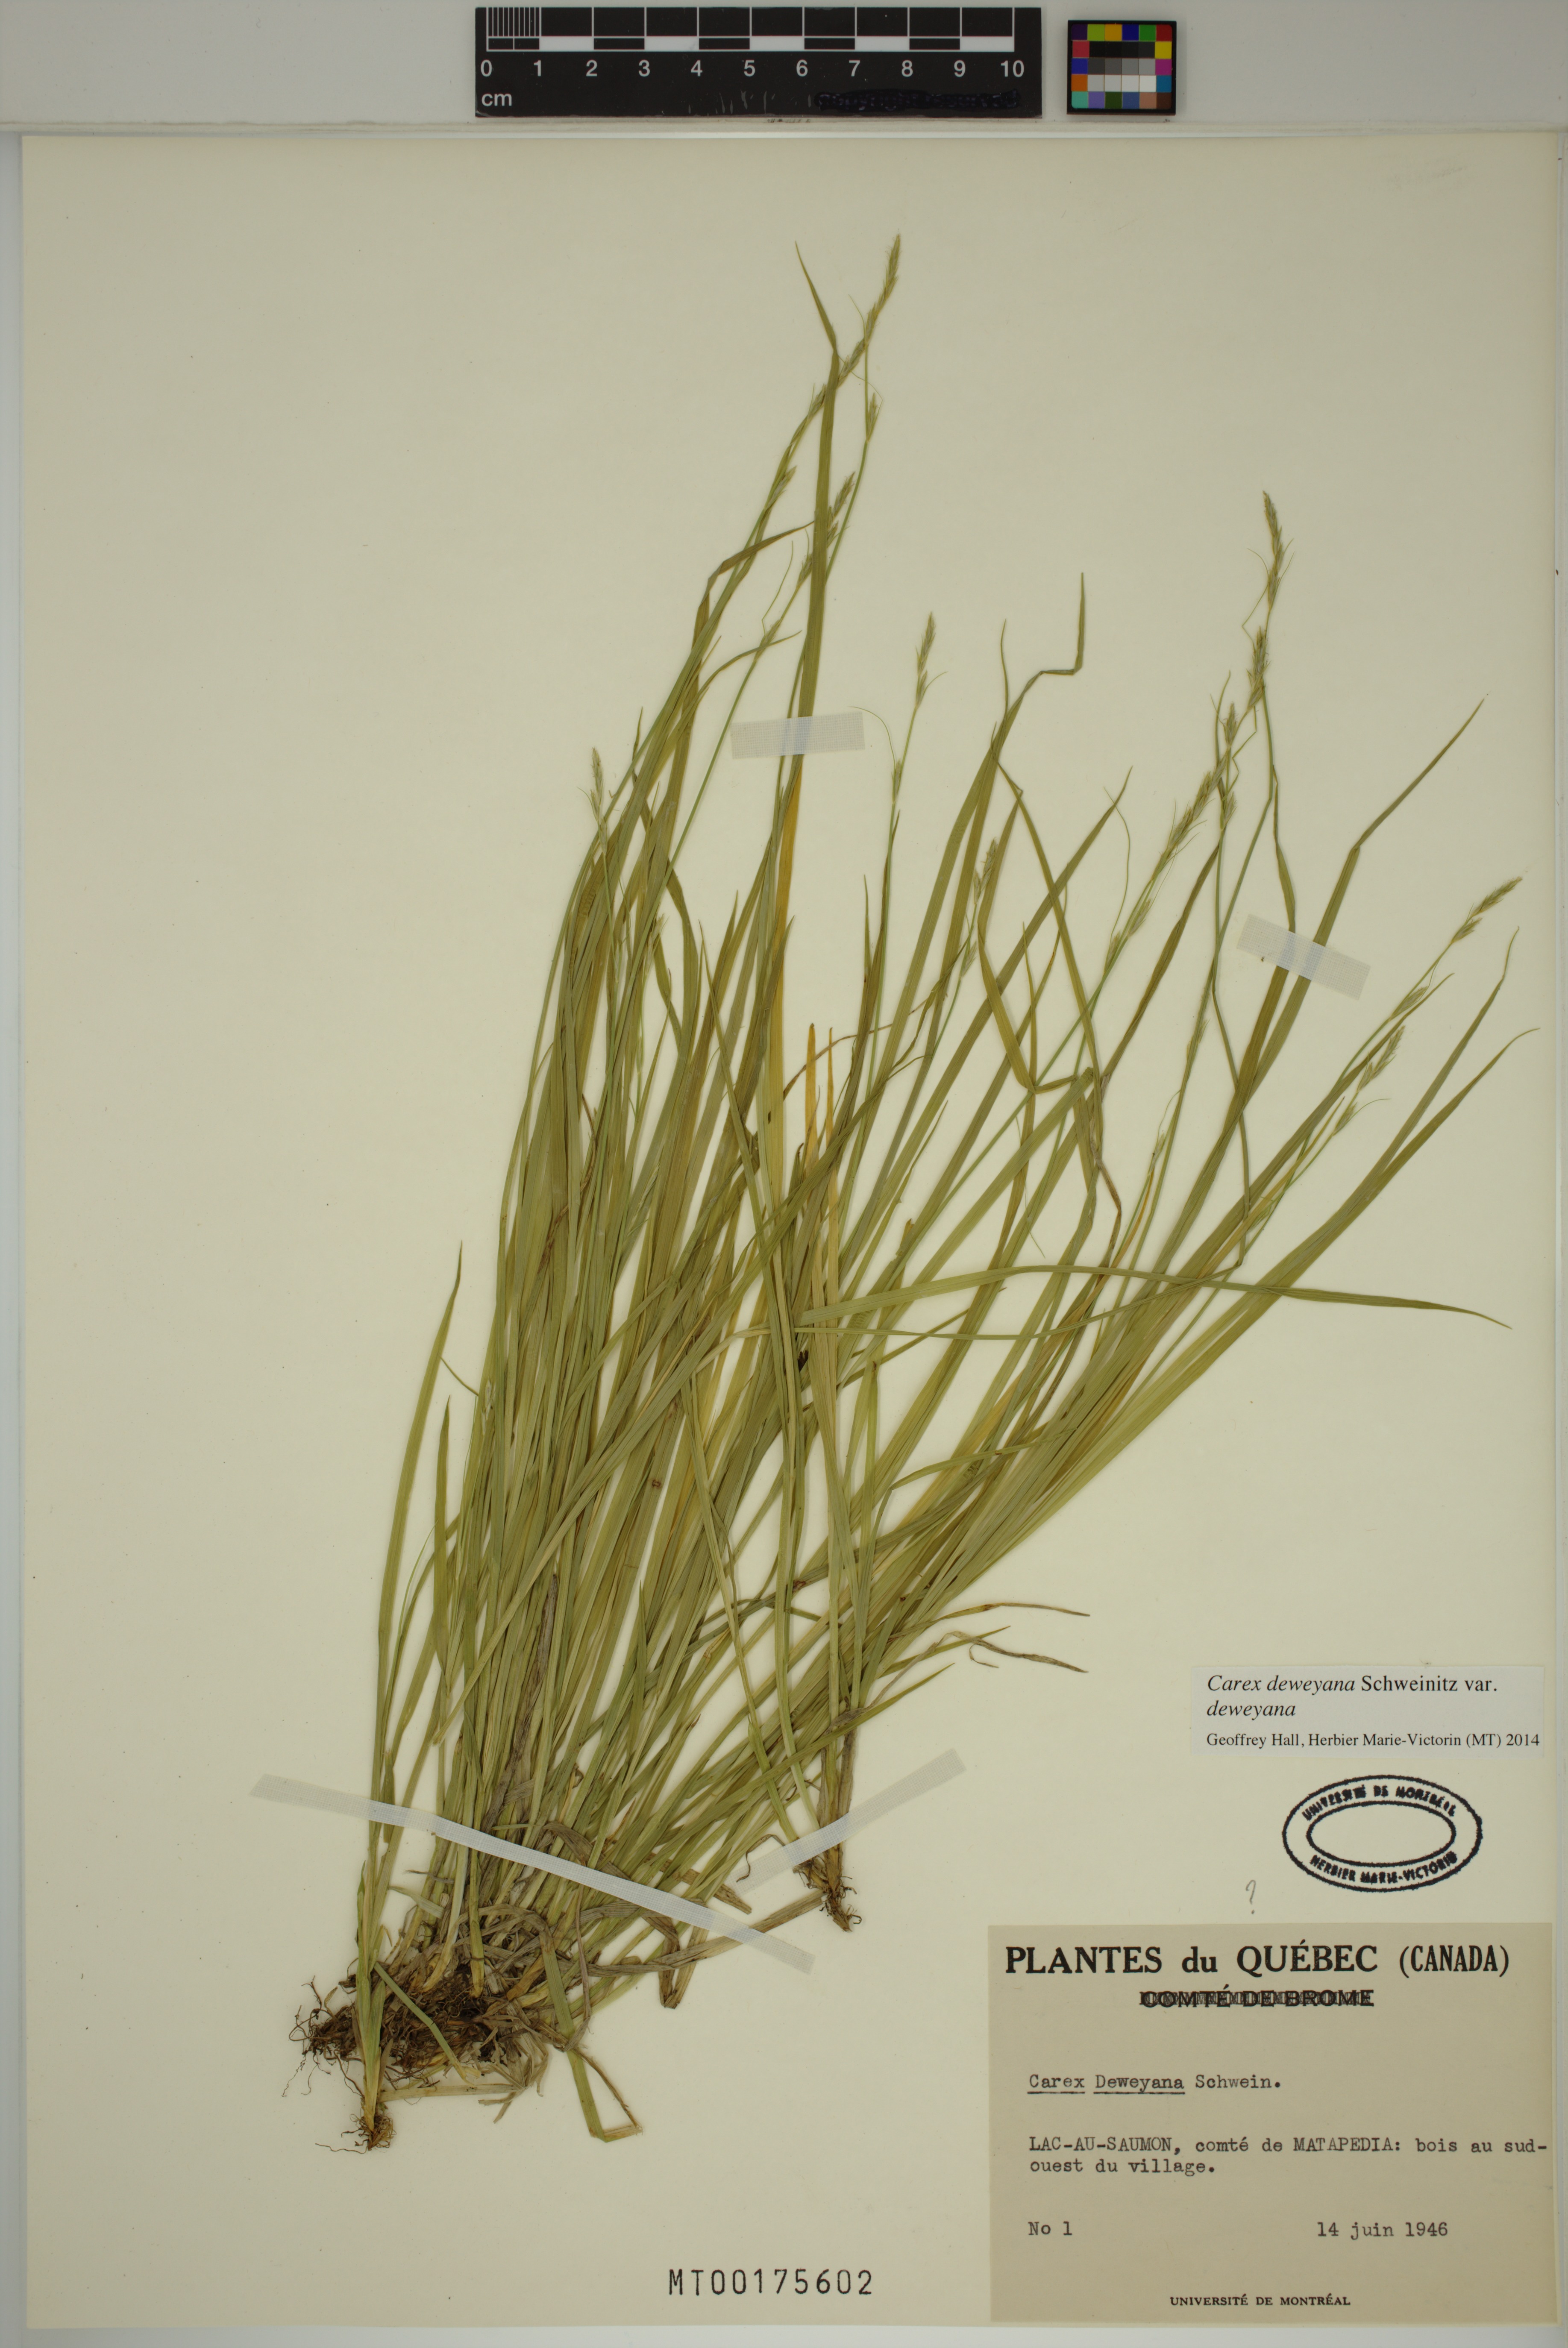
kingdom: Plantae
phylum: Tracheophyta
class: Liliopsida
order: Poales
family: Cyperaceae
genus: Carex
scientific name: Carex deweyana
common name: Dewey's sedge
